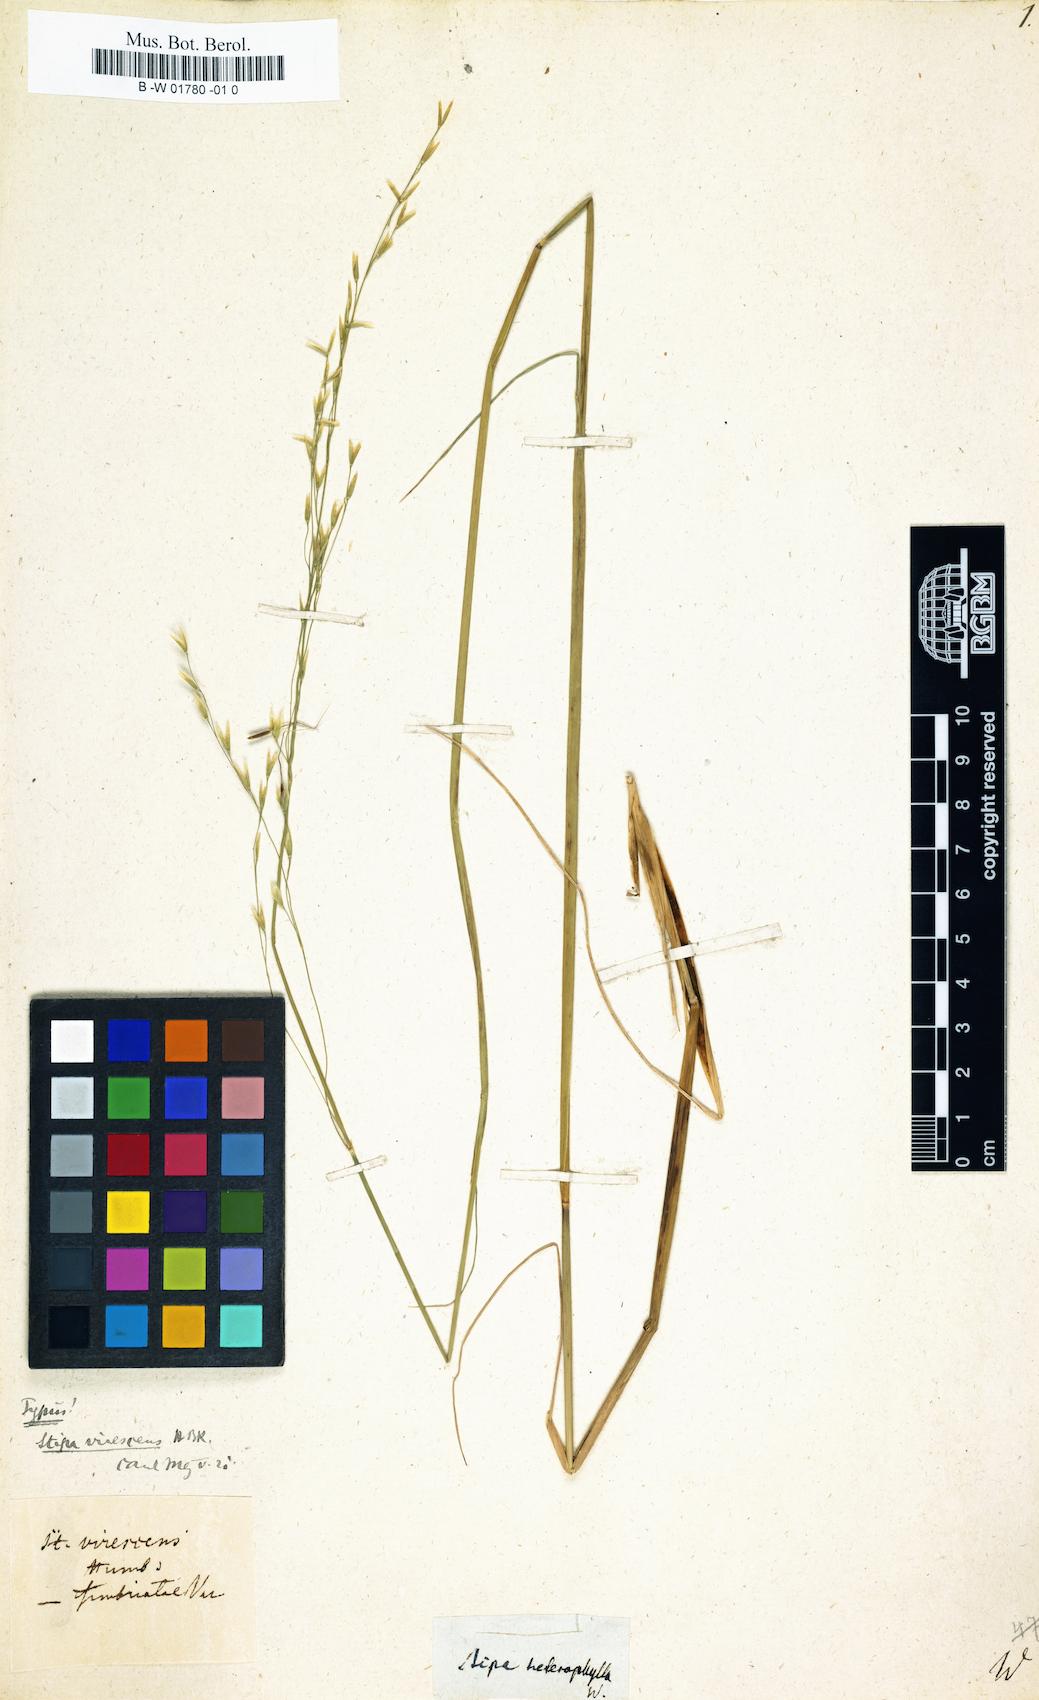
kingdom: Plantae
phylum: Tracheophyta
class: Liliopsida
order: Poales
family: Poaceae
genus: Stipa
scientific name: Stipa pulcherrima
